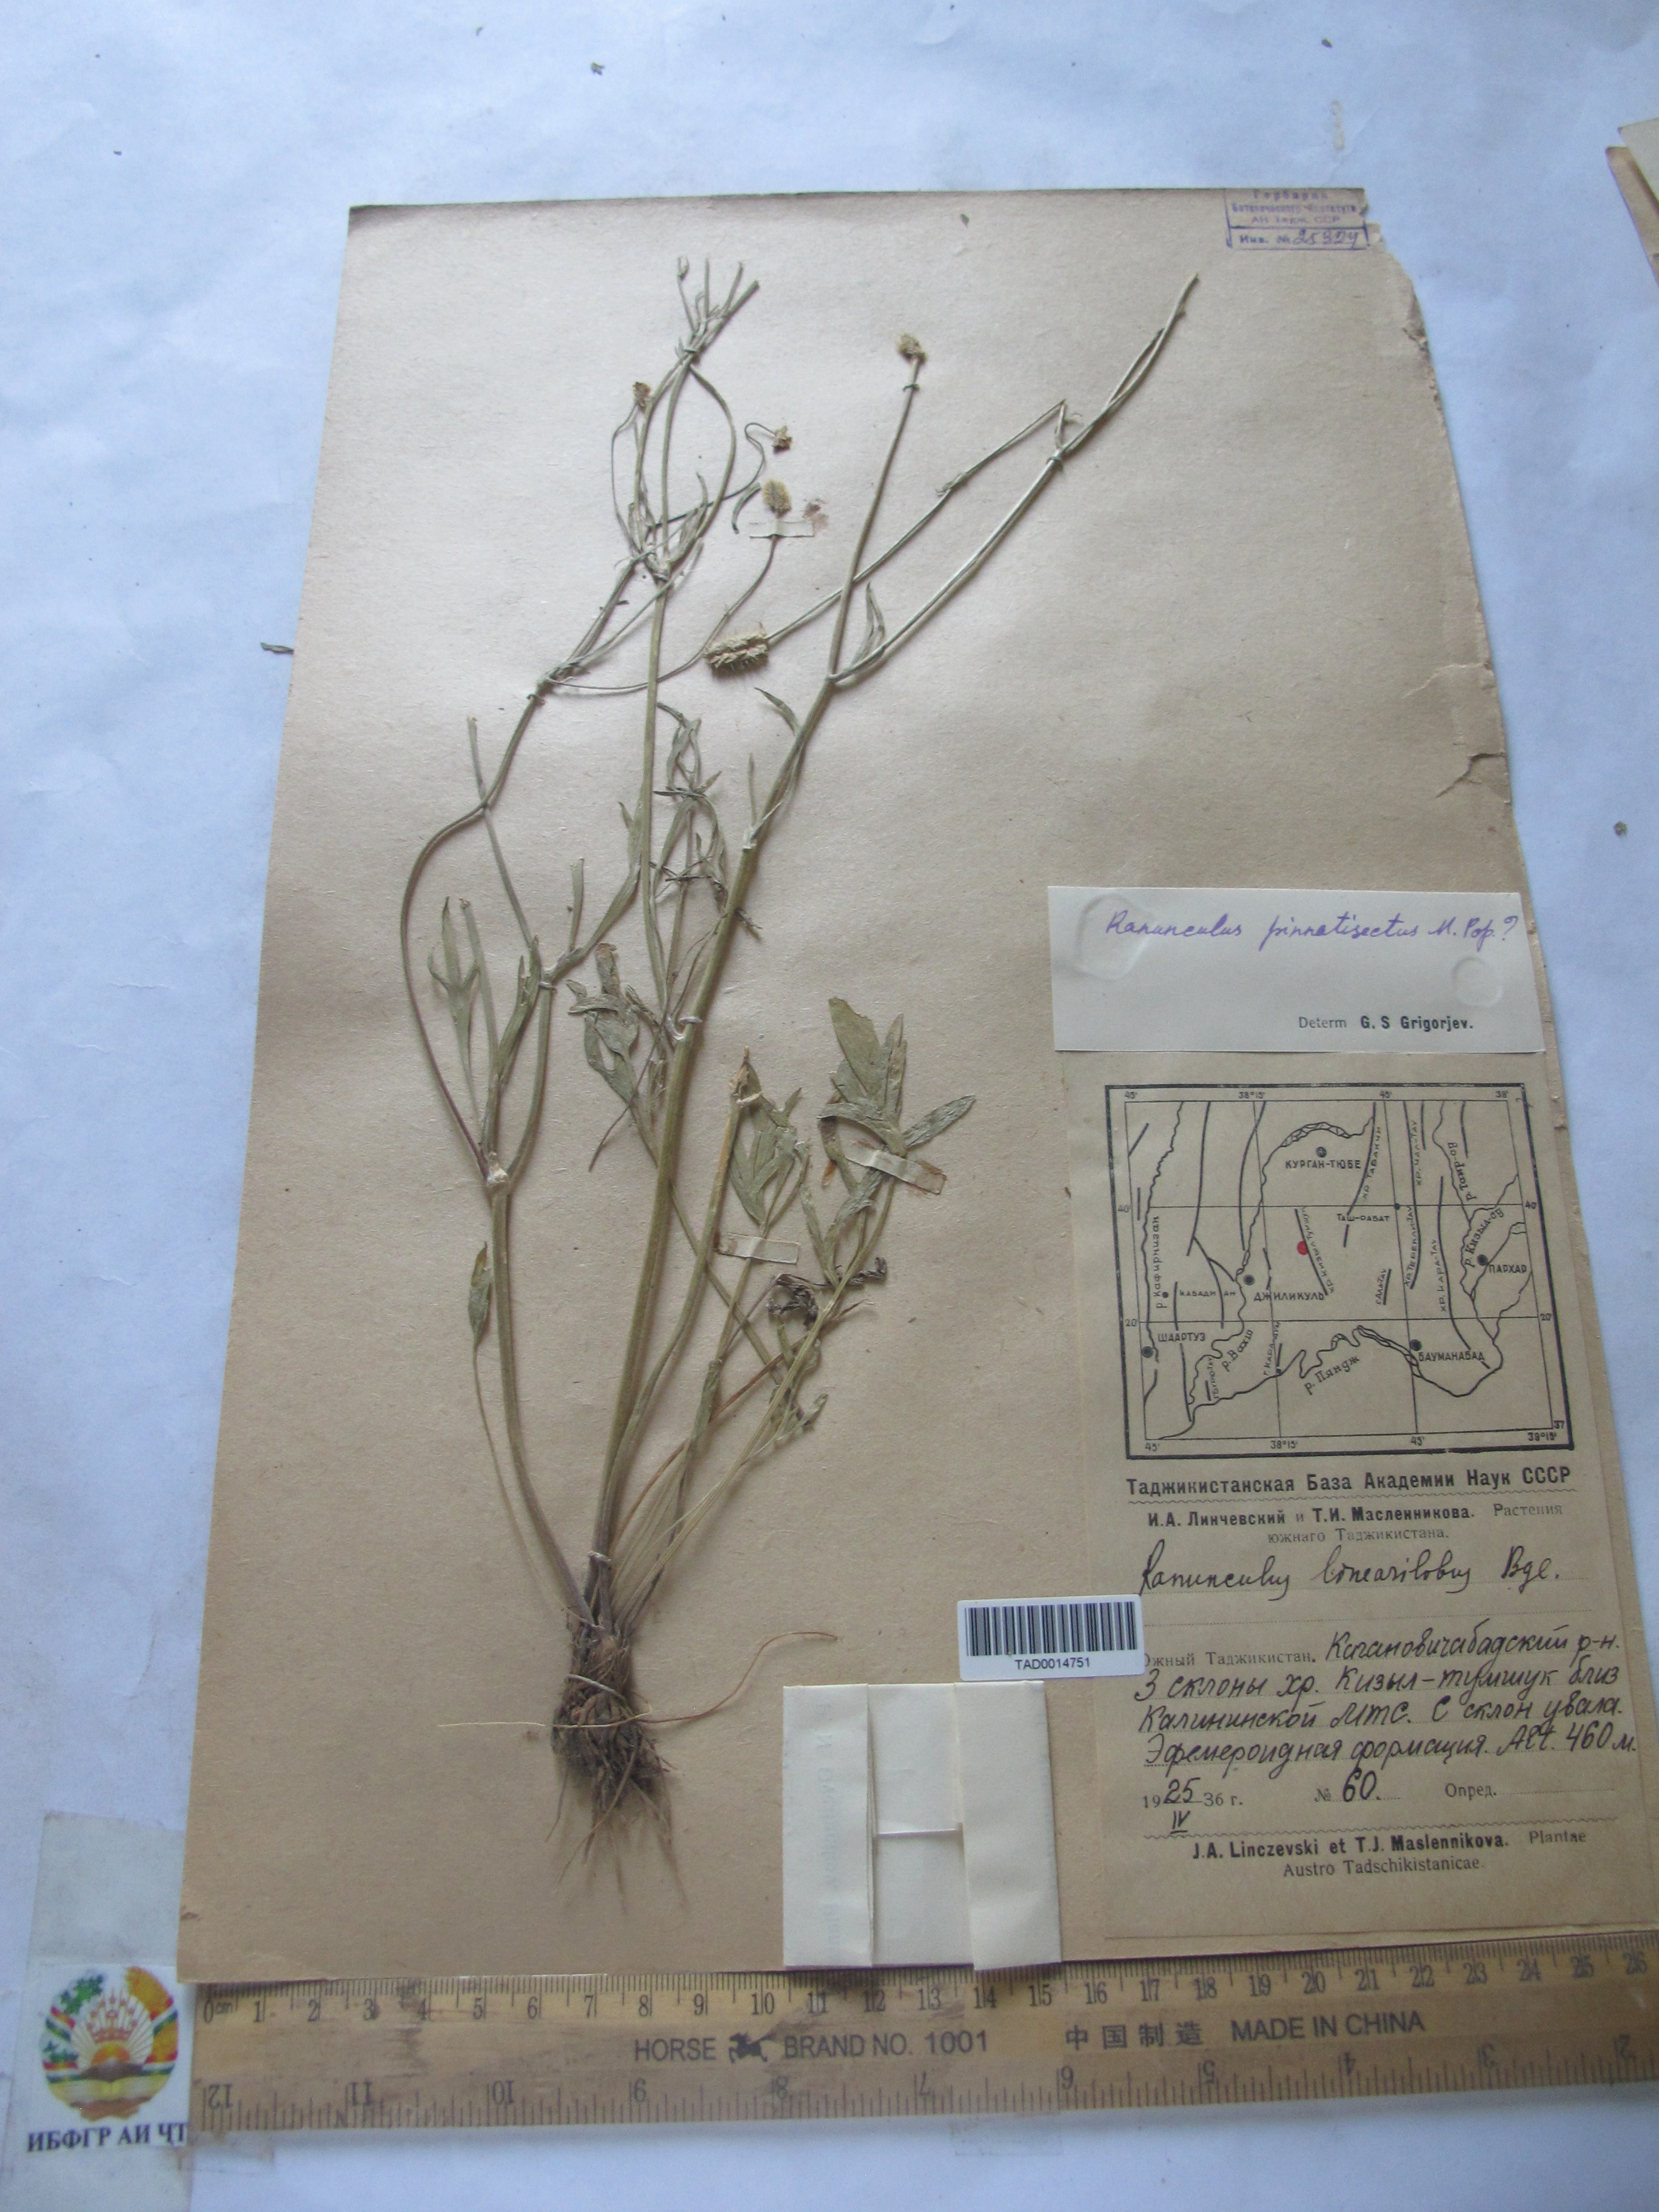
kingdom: Plantae
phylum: Tracheophyta
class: Magnoliopsida
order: Ranunculales
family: Ranunculaceae
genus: Ranunculus
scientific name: Ranunculus linearilobus
